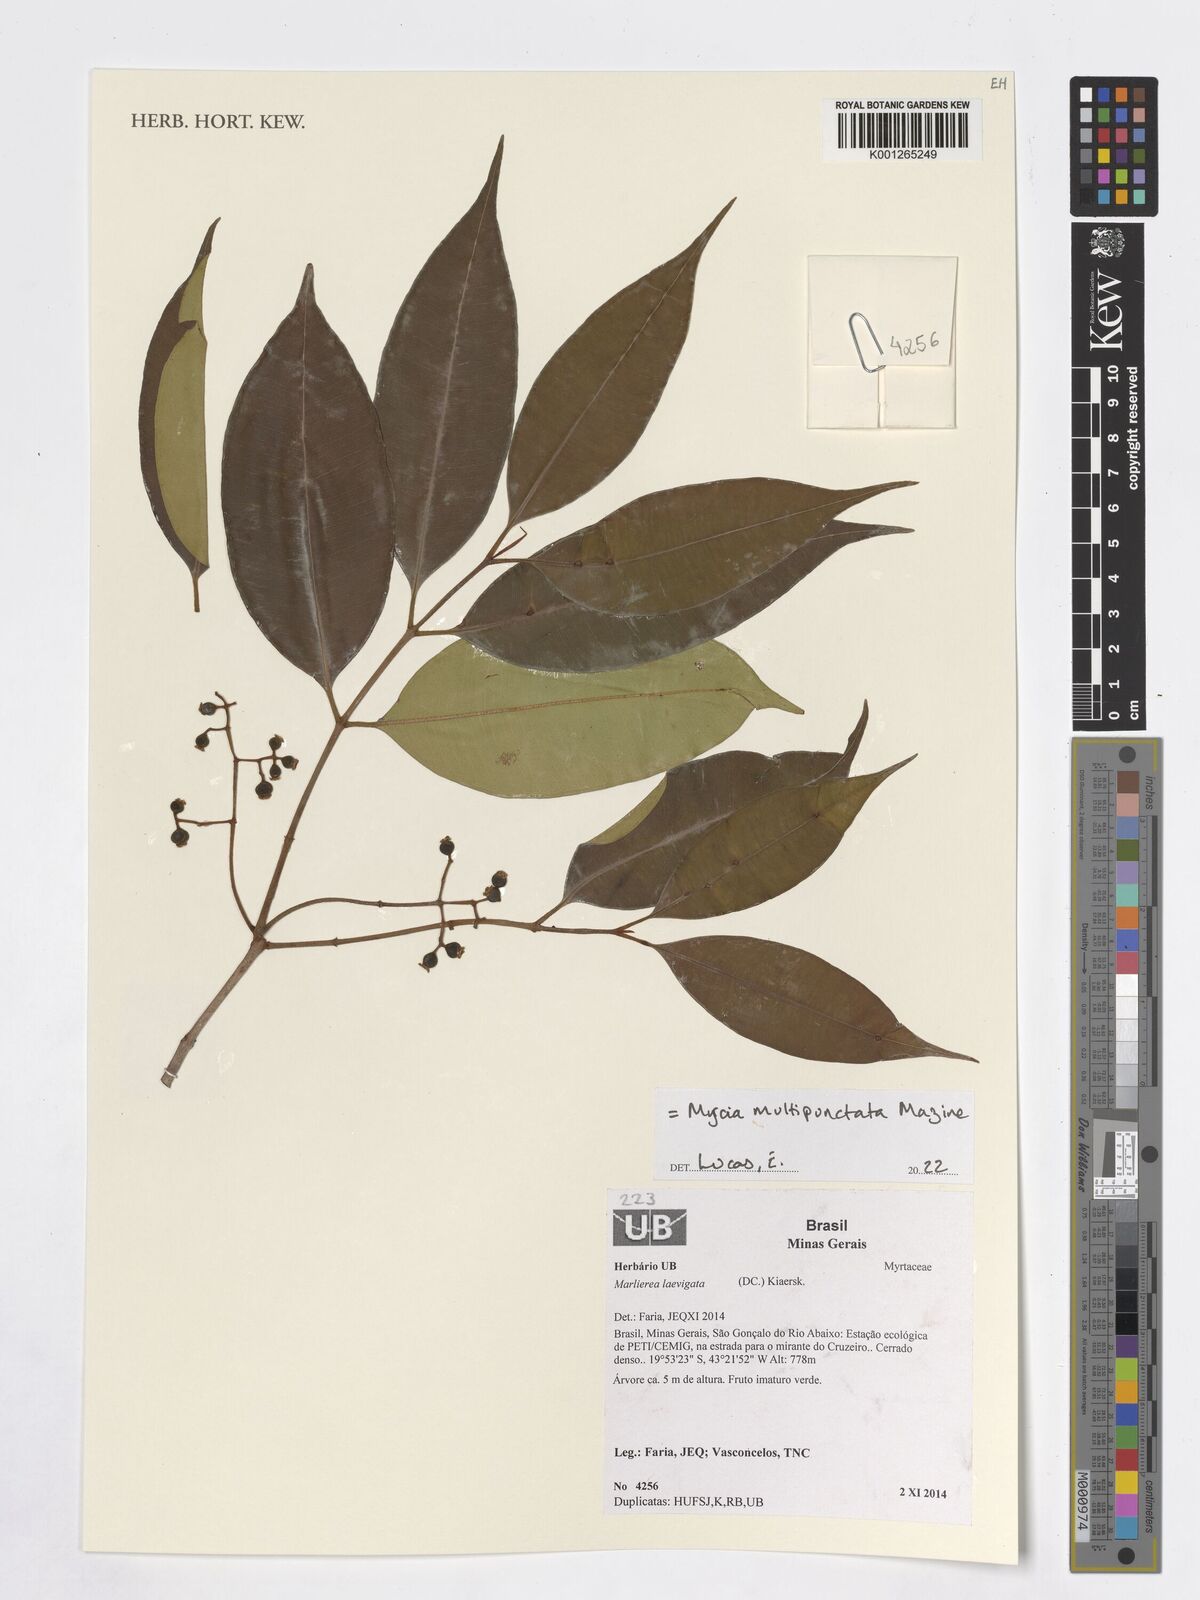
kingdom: Plantae
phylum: Tracheophyta
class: Magnoliopsida
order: Myrtales
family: Myrtaceae
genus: Myrcia
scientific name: Myrcia multipunctata
